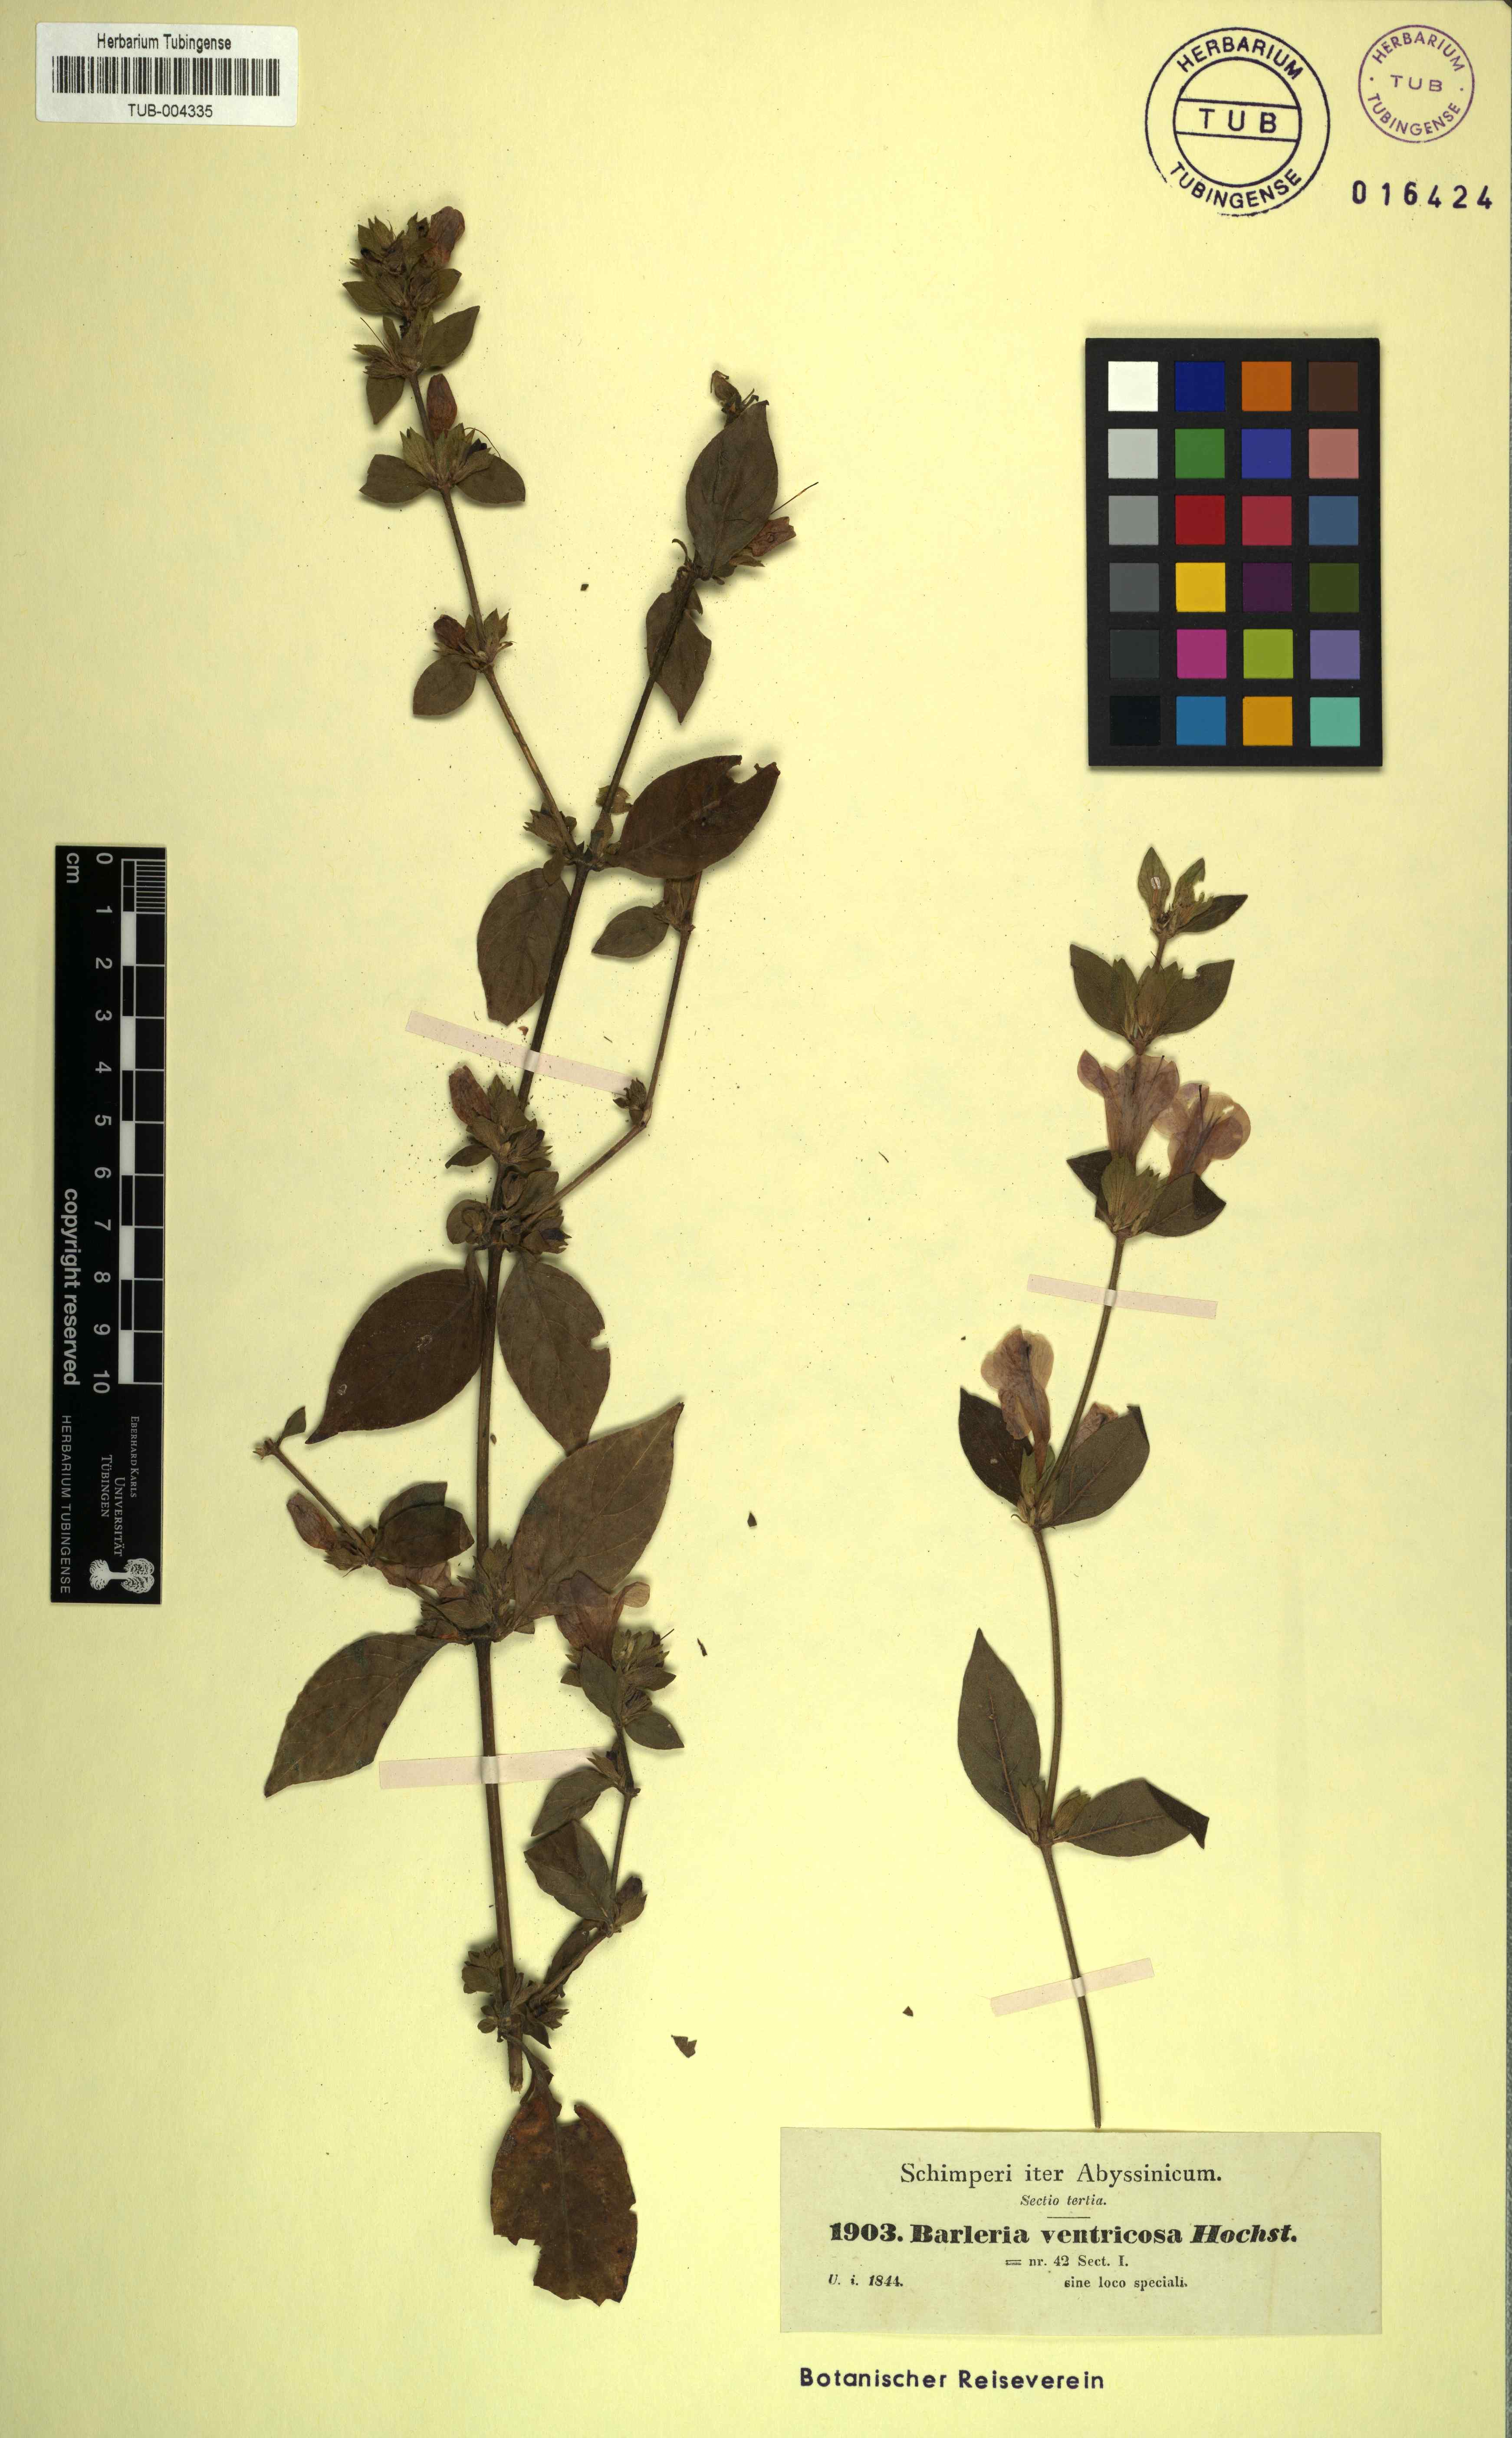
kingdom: Plantae
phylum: Tracheophyta
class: Magnoliopsida
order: Lamiales
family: Acanthaceae
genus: Barleria
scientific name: Barleria ventricosa
